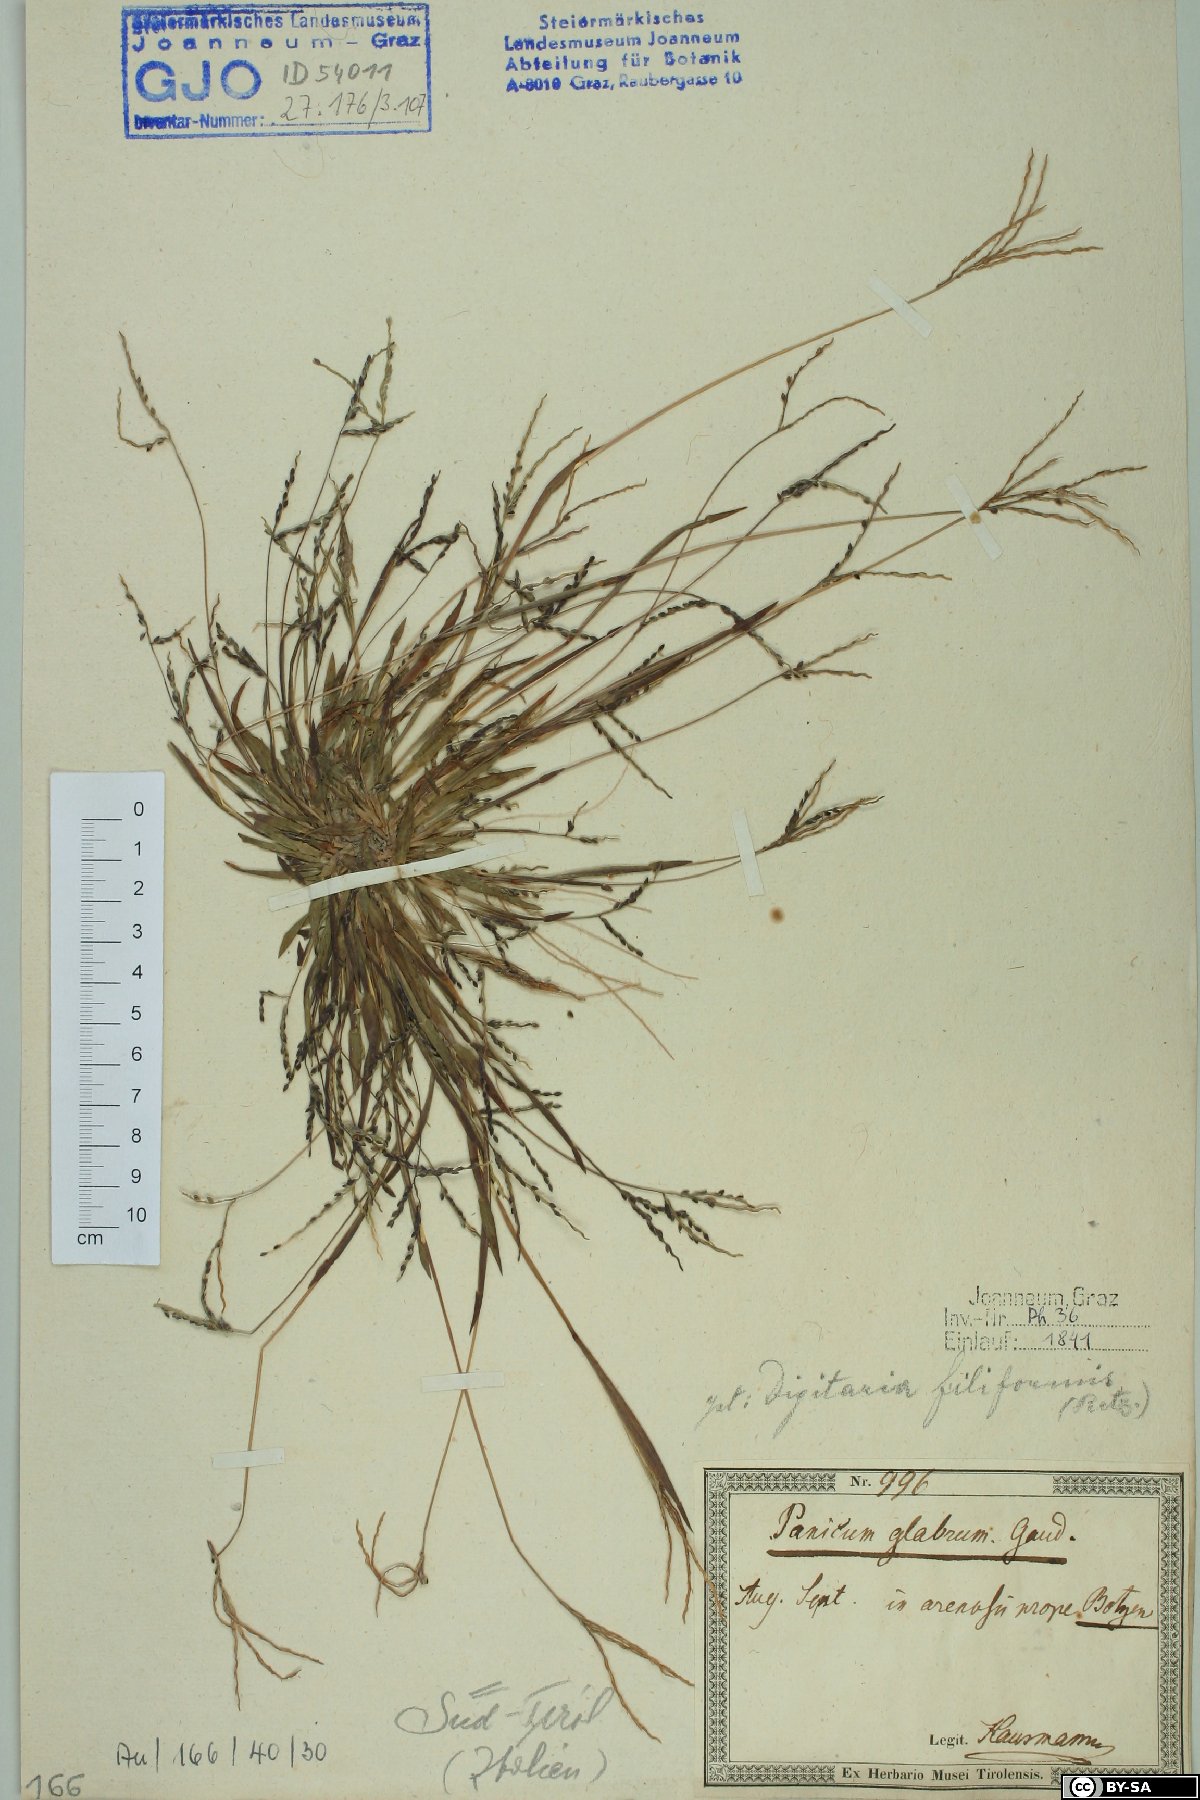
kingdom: Plantae
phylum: Tracheophyta
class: Liliopsida
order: Poales
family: Poaceae
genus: Digitaria
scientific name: Digitaria ischaemum
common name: Smooth crabgrass
